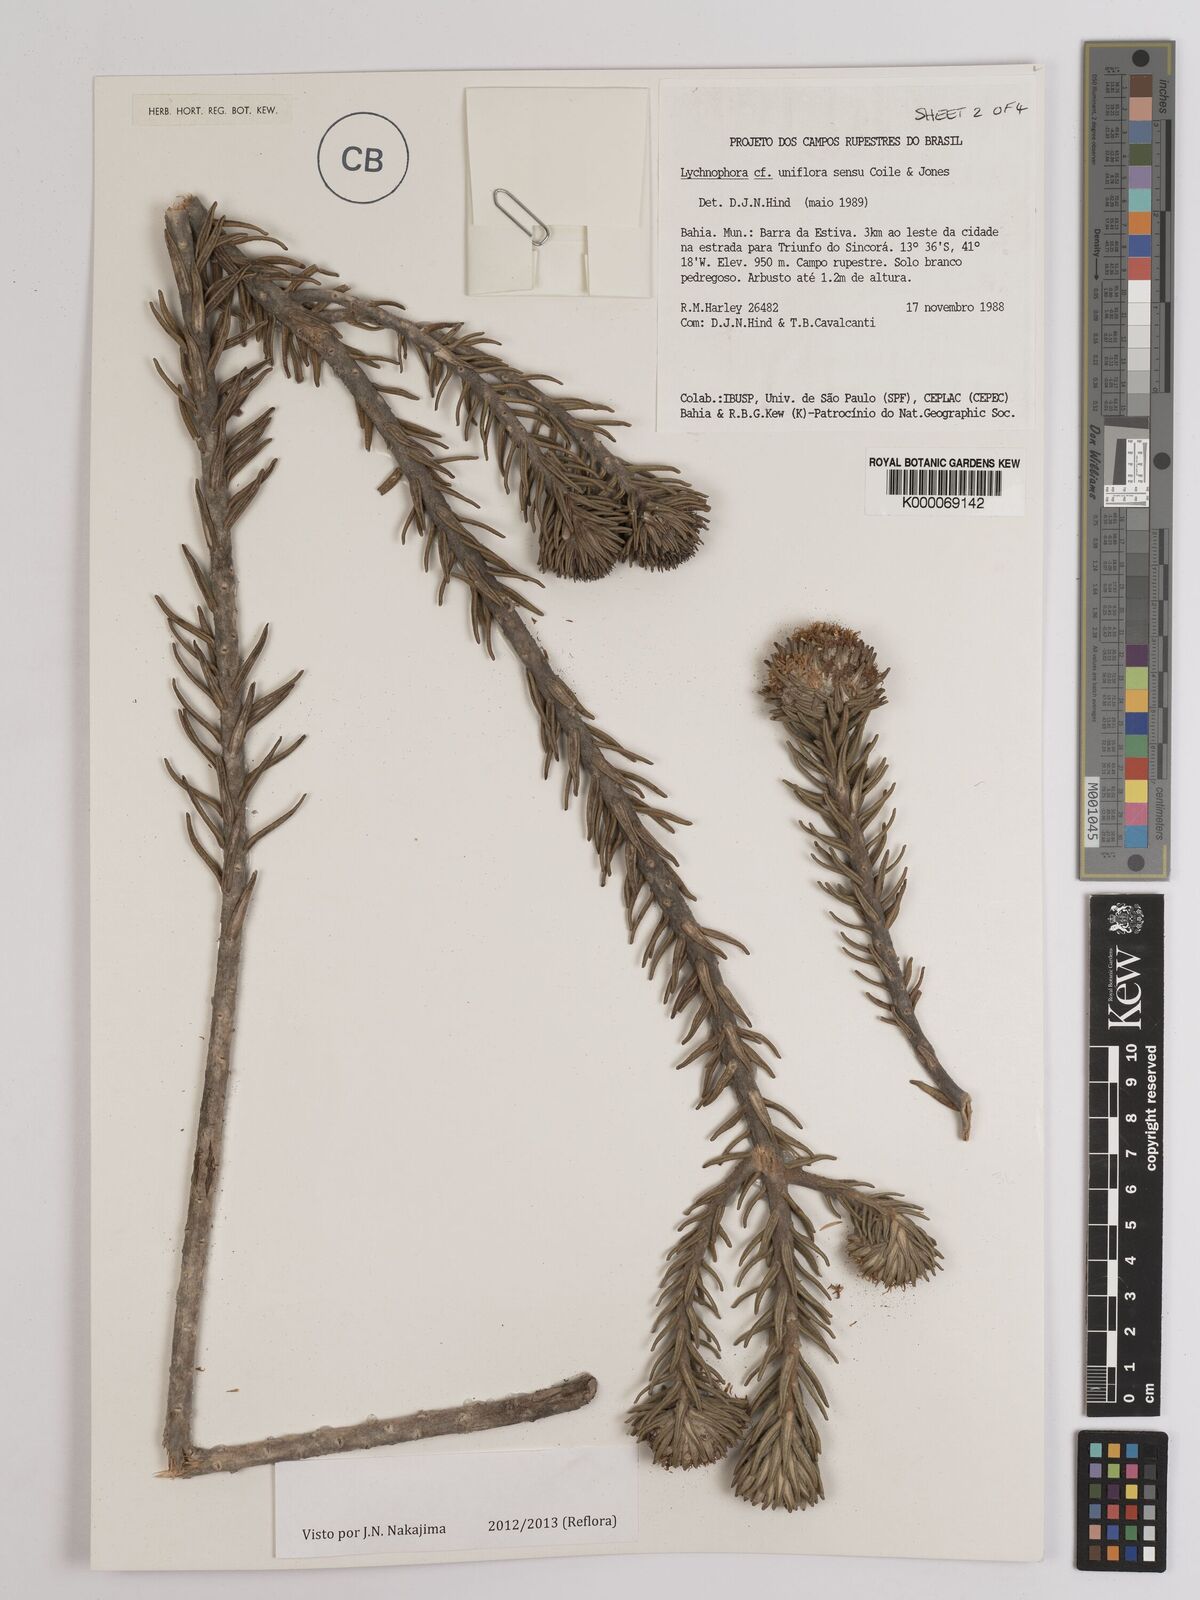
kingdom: Plantae
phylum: Tracheophyta
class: Magnoliopsida
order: Asterales
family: Asteraceae
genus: Lychnophora
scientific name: Lychnophora uniflora
